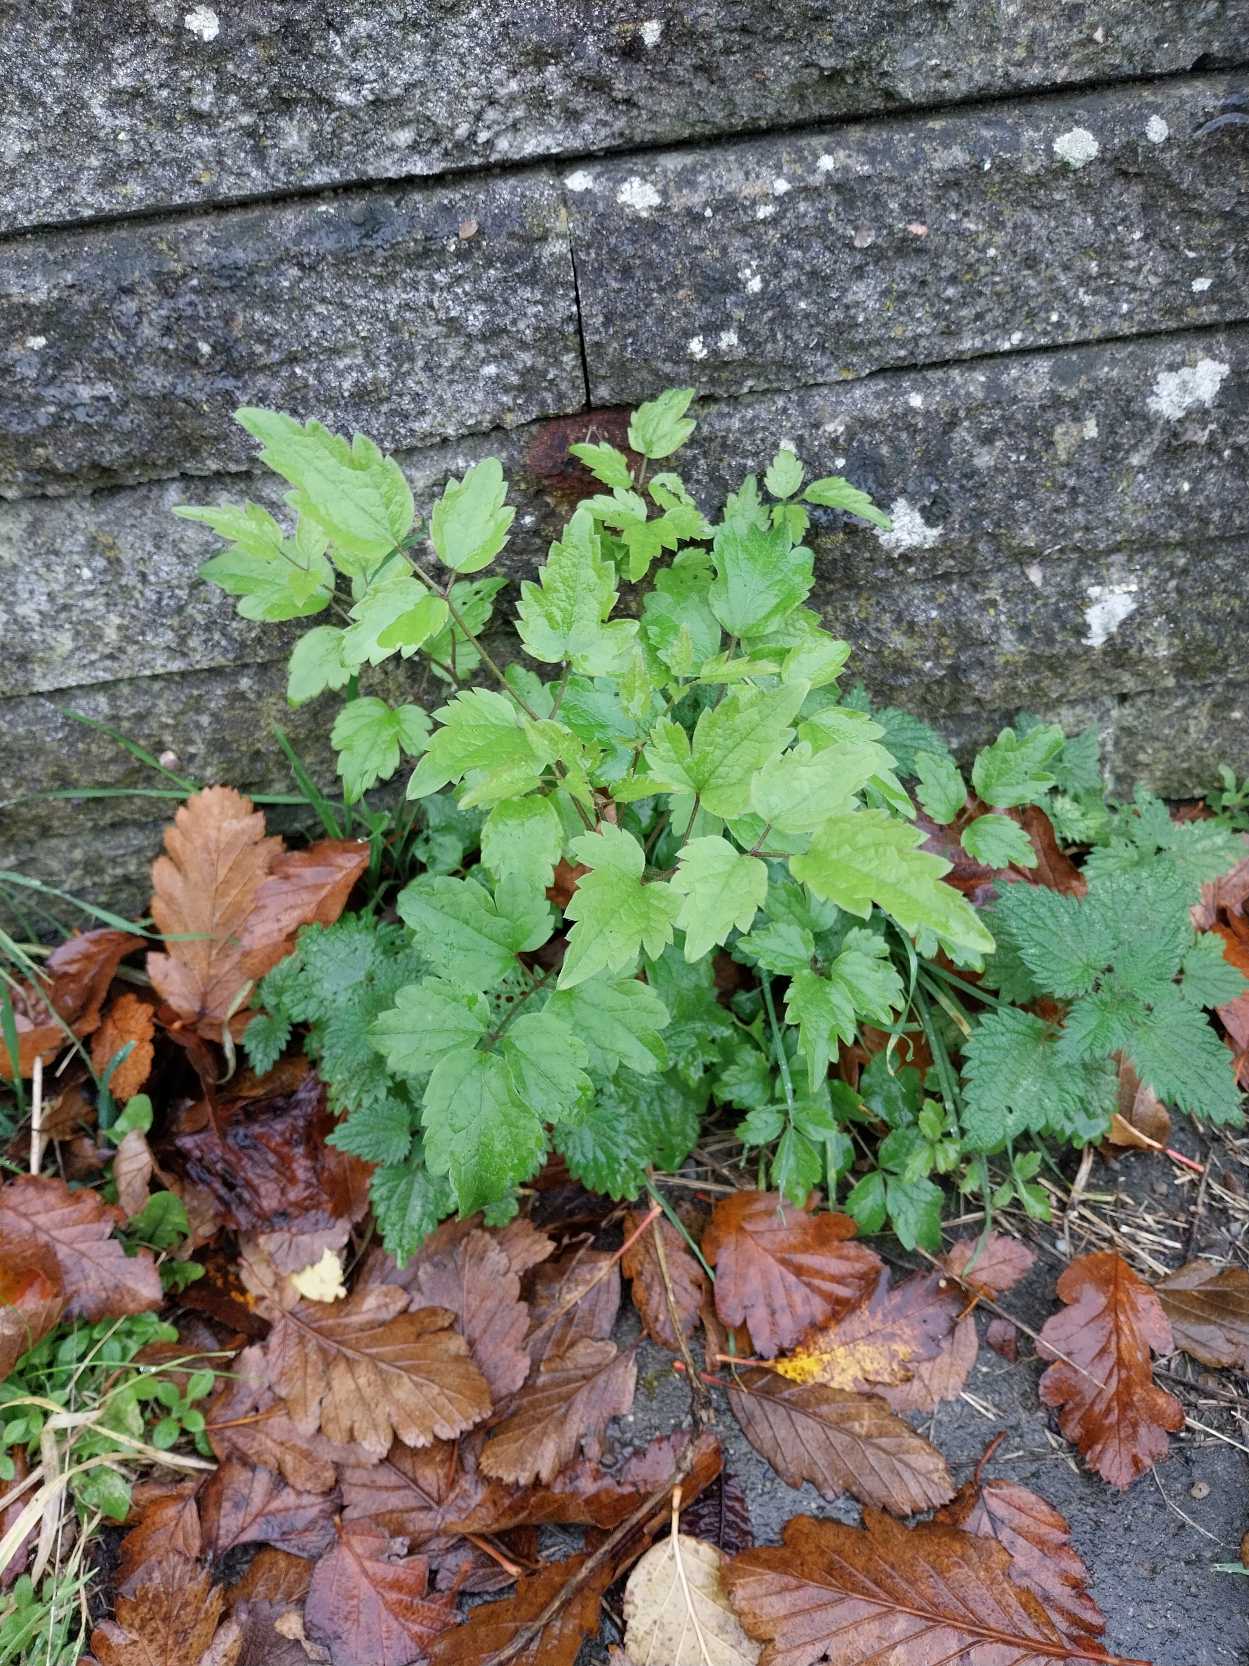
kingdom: Plantae
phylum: Tracheophyta
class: Magnoliopsida
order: Ranunculales
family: Ranunculaceae
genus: Clematis
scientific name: Clematis vitalba
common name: Skovranke
